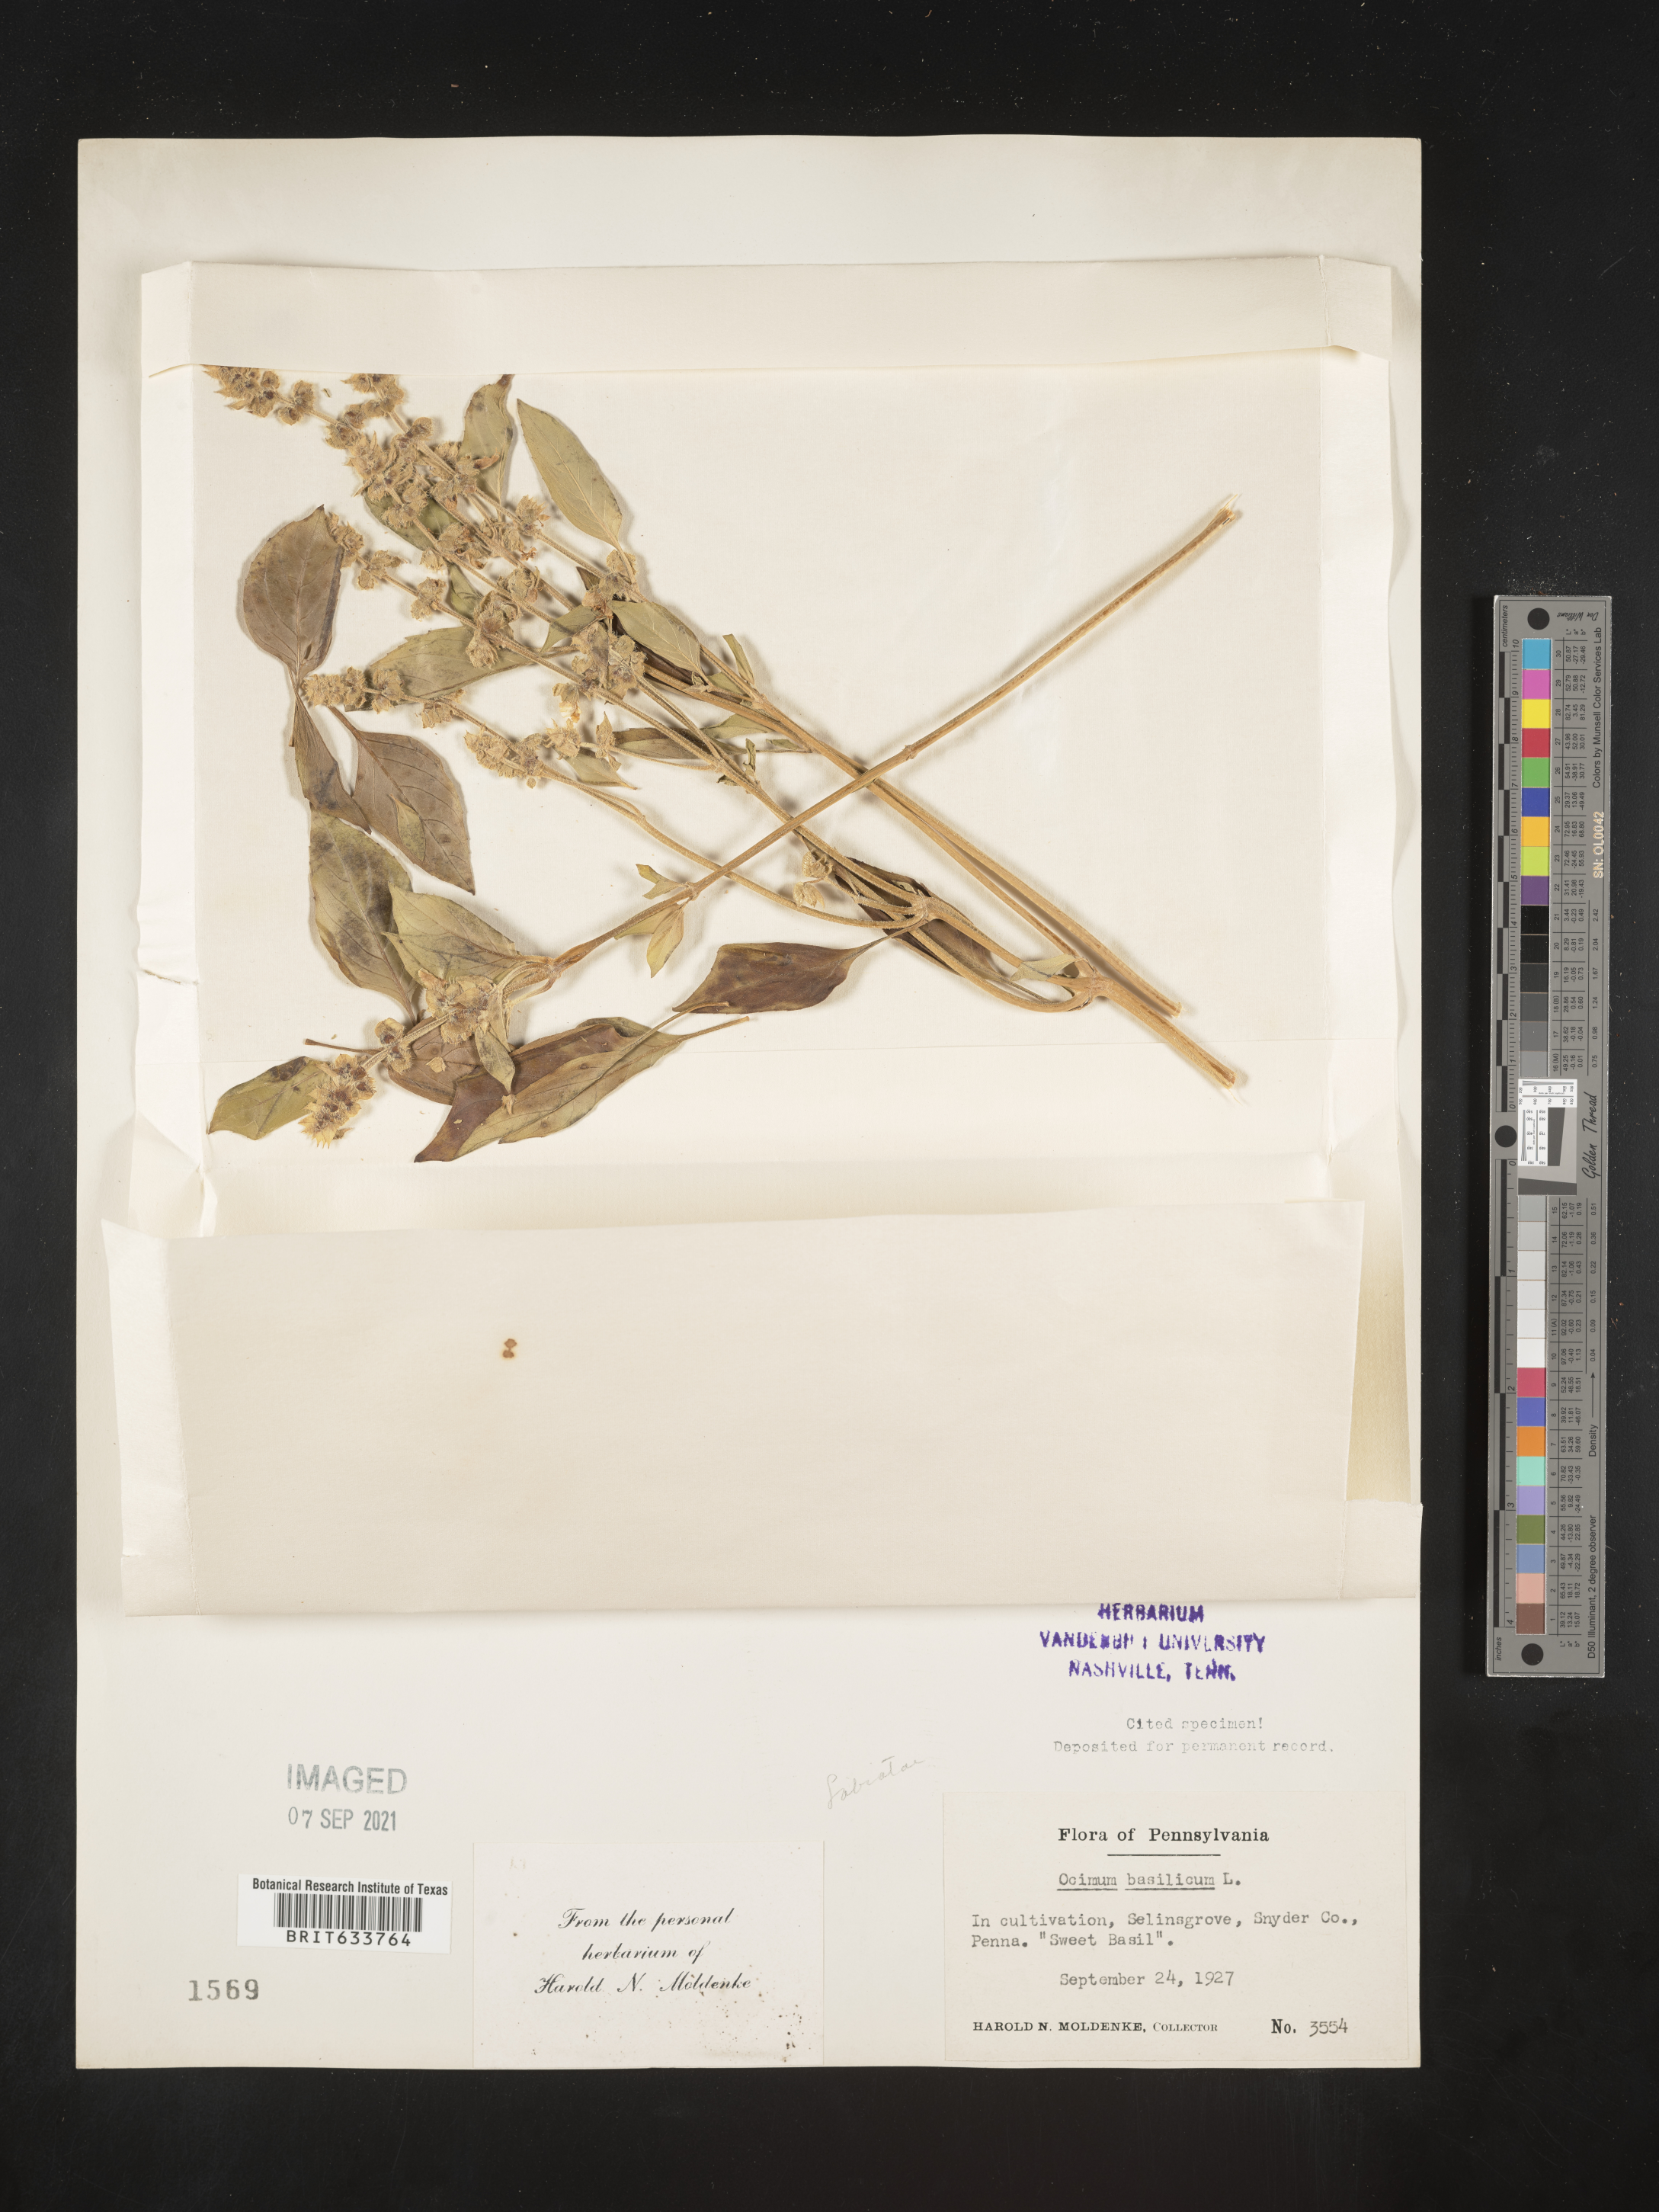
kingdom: Plantae
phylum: Tracheophyta
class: Magnoliopsida
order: Lamiales
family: Lamiaceae
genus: Ocimum
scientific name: Ocimum
